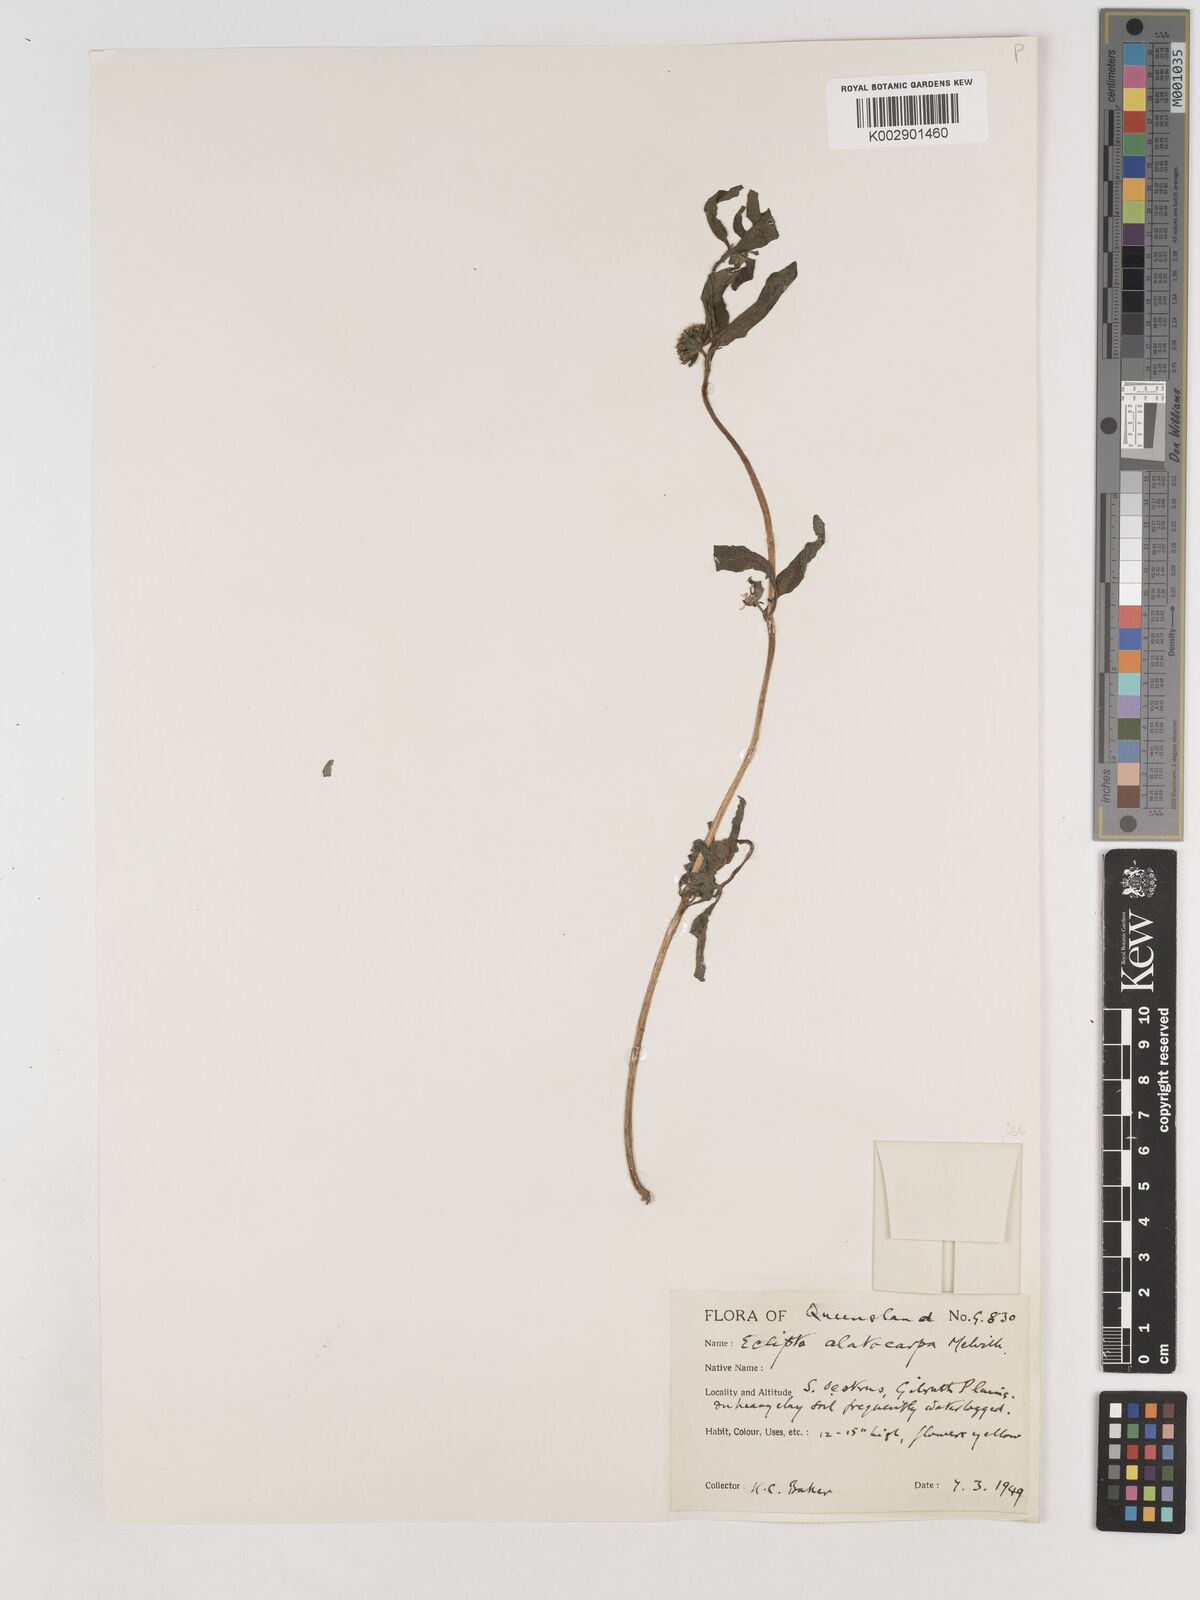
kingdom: Plantae
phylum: Tracheophyta
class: Magnoliopsida
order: Asterales
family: Asteraceae
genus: Eclipta
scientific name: Eclipta alatocarpa
